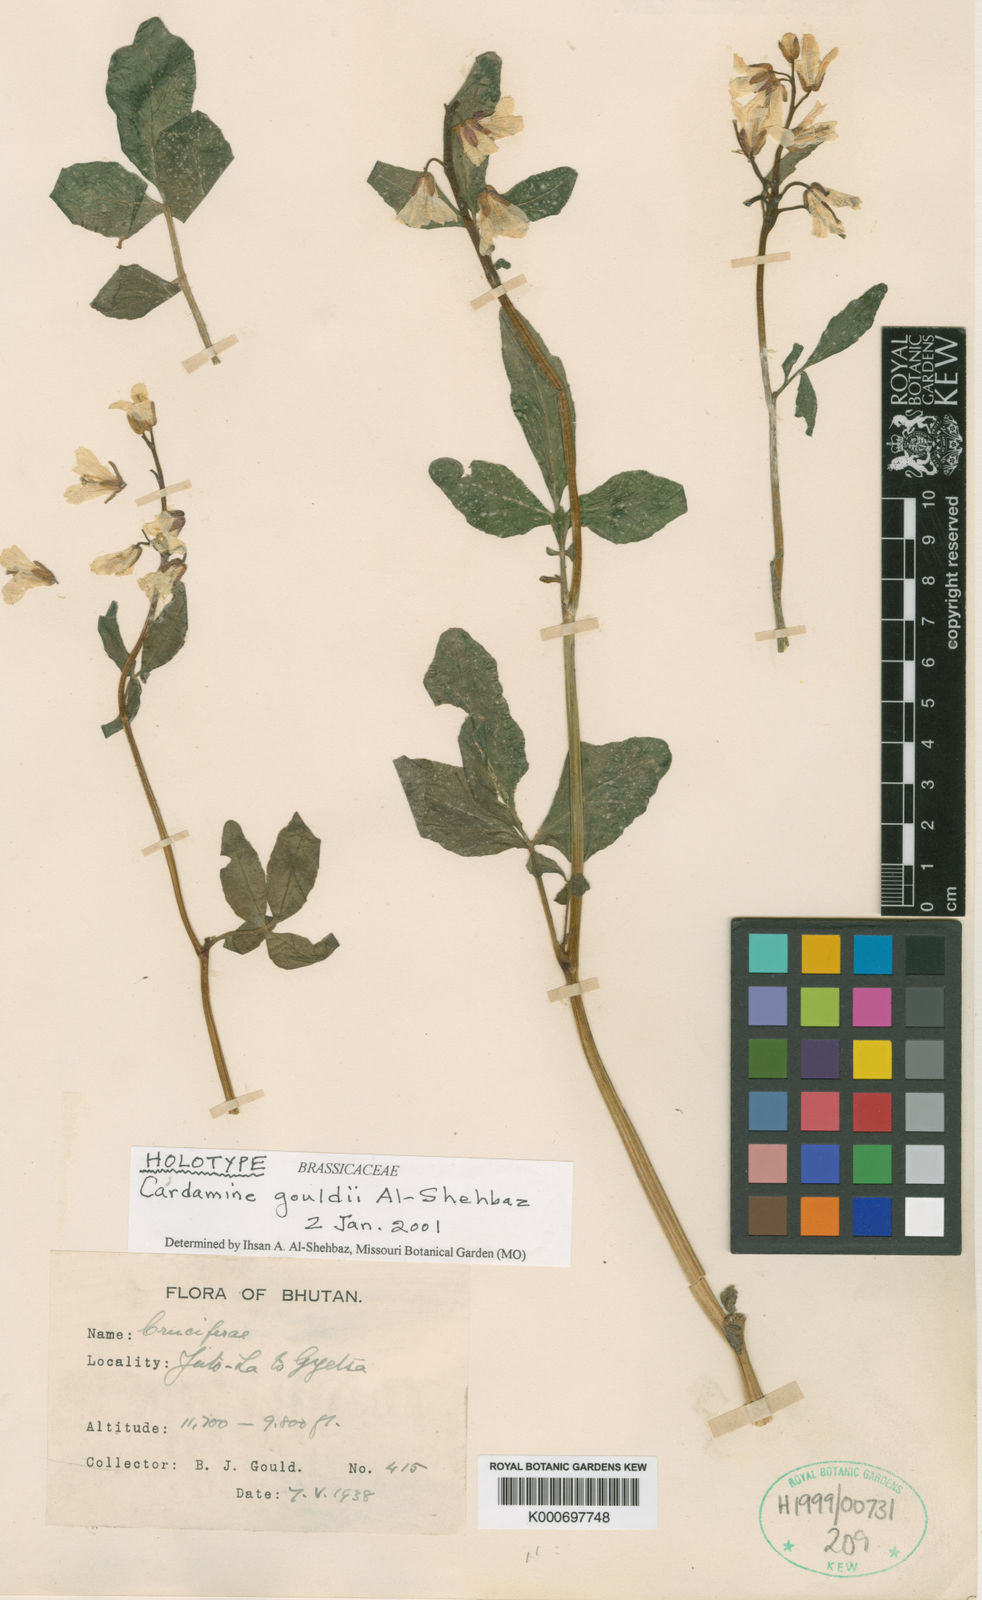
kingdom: Plantae
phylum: Tracheophyta
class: Magnoliopsida
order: Brassicales
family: Brassicaceae
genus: Cardamine
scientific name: Cardamine gouldii
